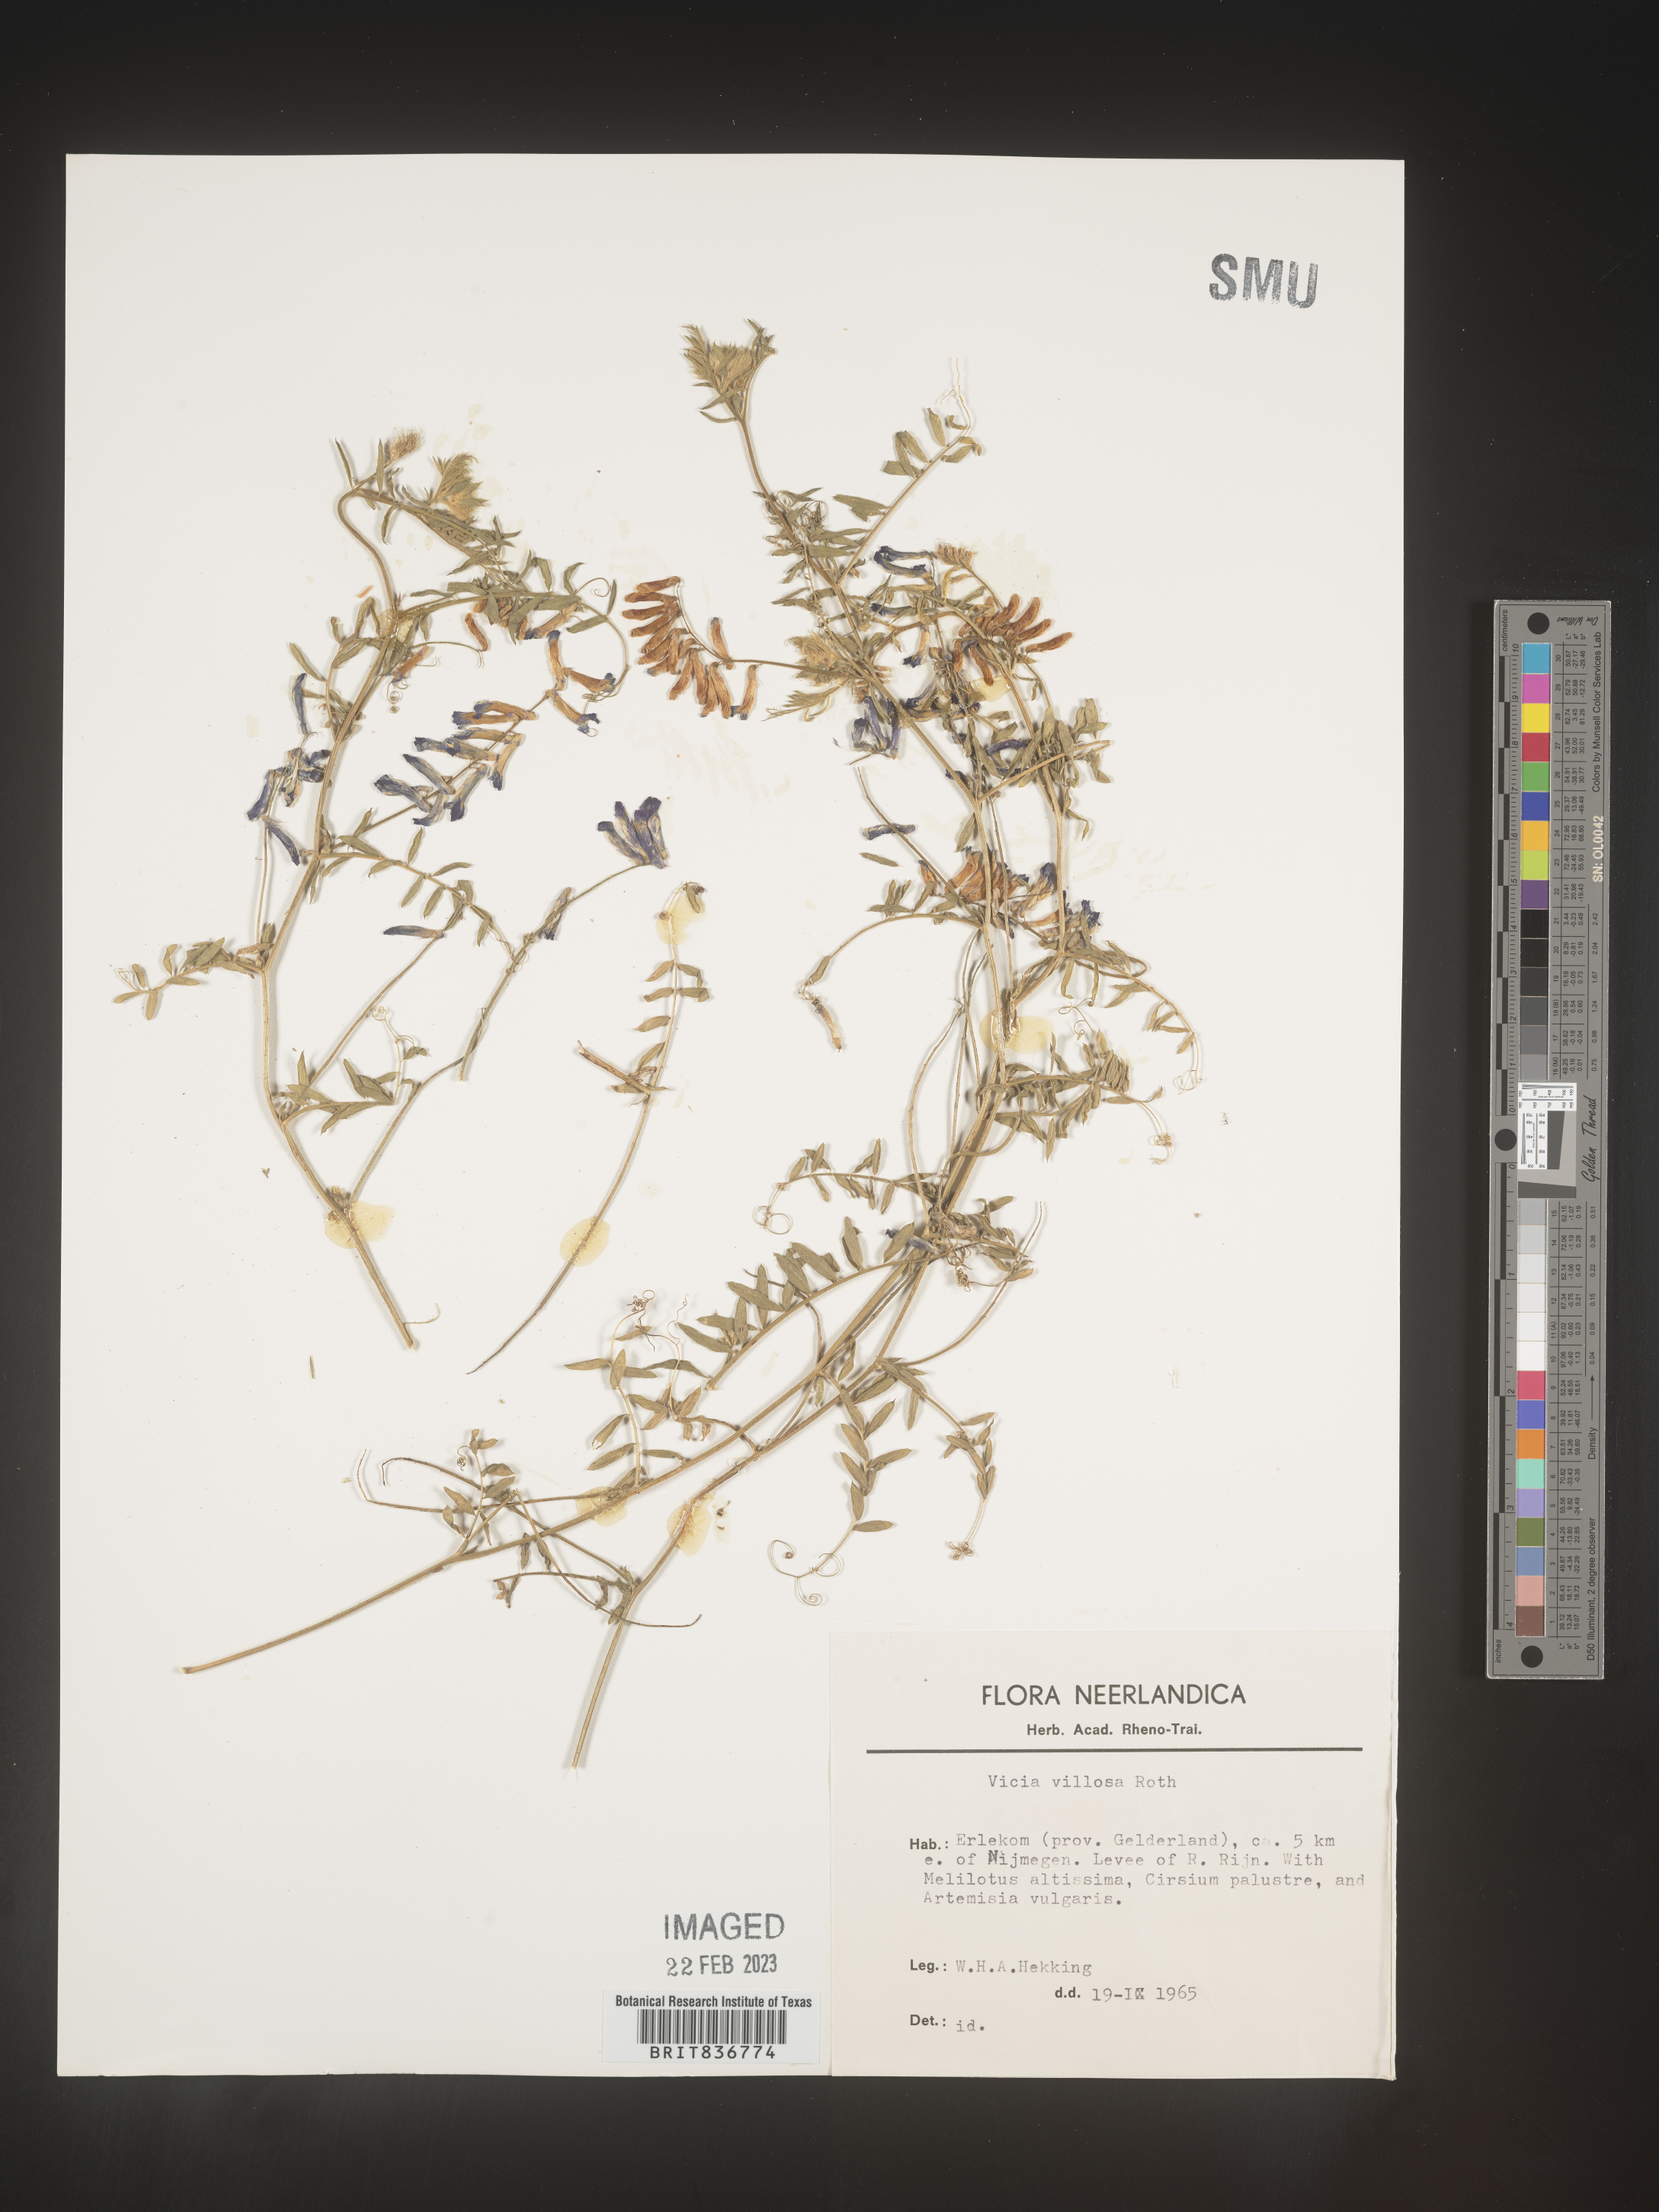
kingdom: Plantae
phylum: Tracheophyta
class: Magnoliopsida
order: Fabales
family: Fabaceae
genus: Vicia
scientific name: Vicia
